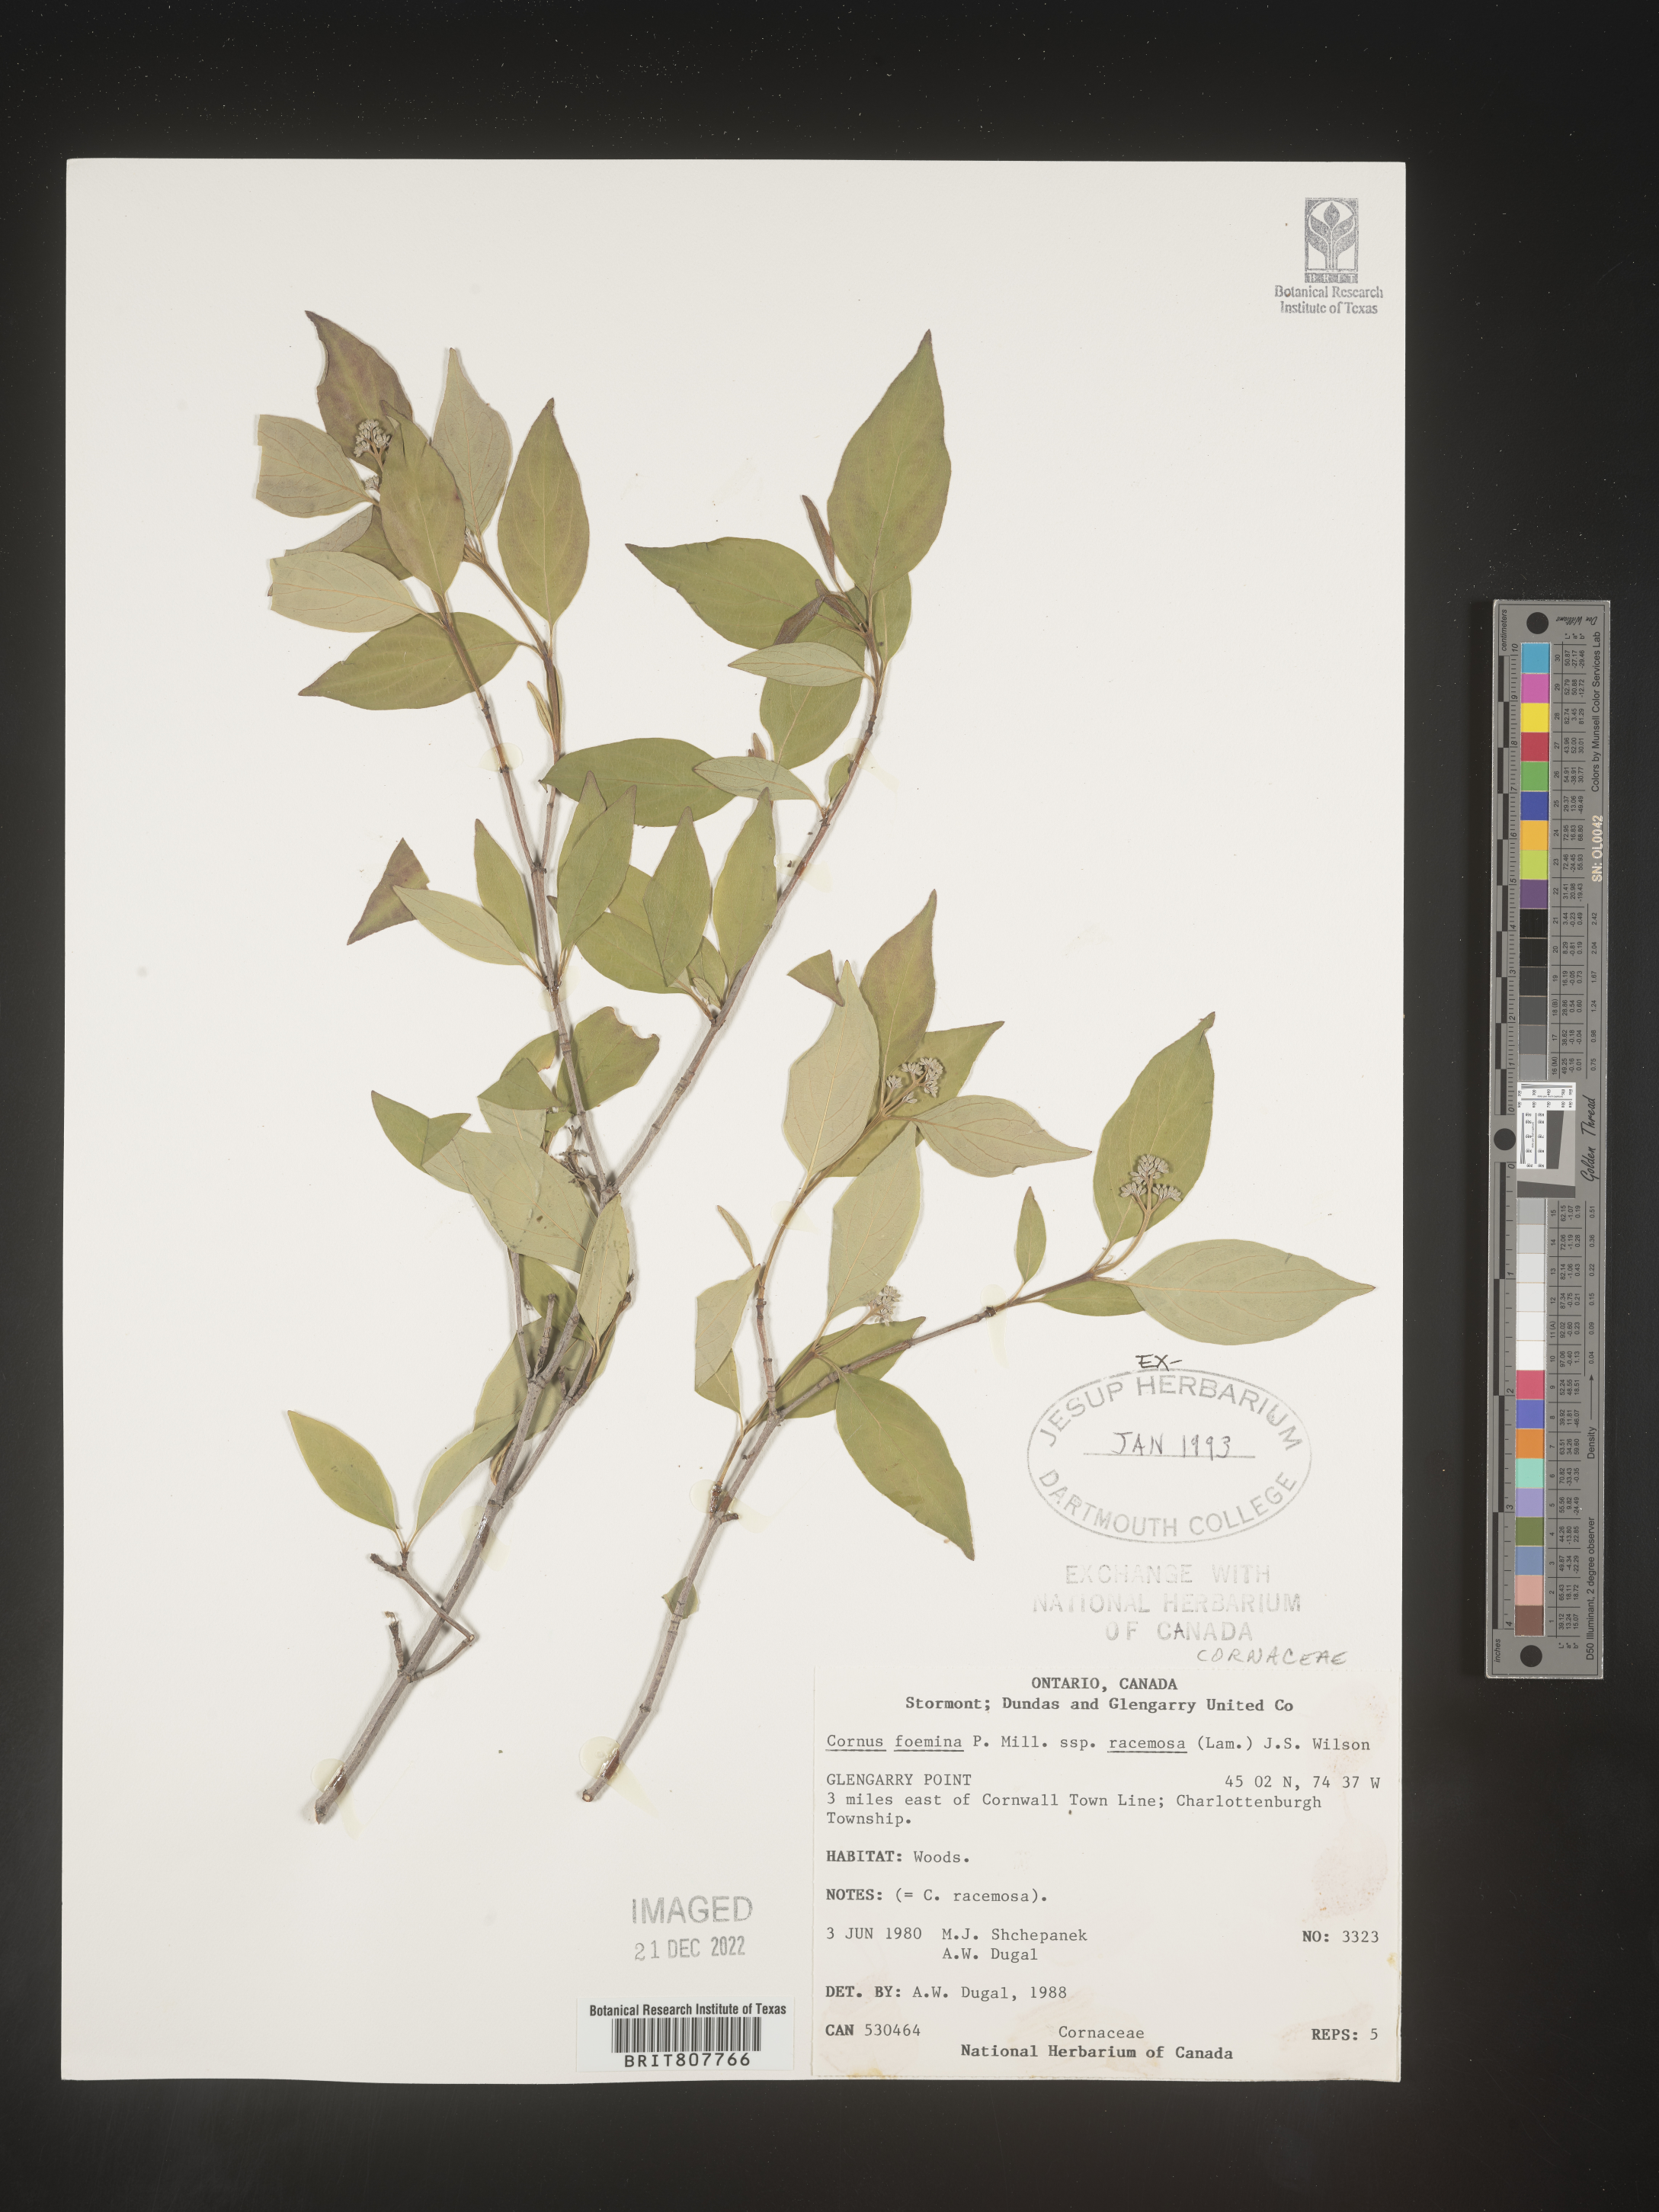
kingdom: Plantae
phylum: Tracheophyta
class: Magnoliopsida
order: Cornales
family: Cornaceae
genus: Cornus
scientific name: Cornus foemina
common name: Swamp dogwood
